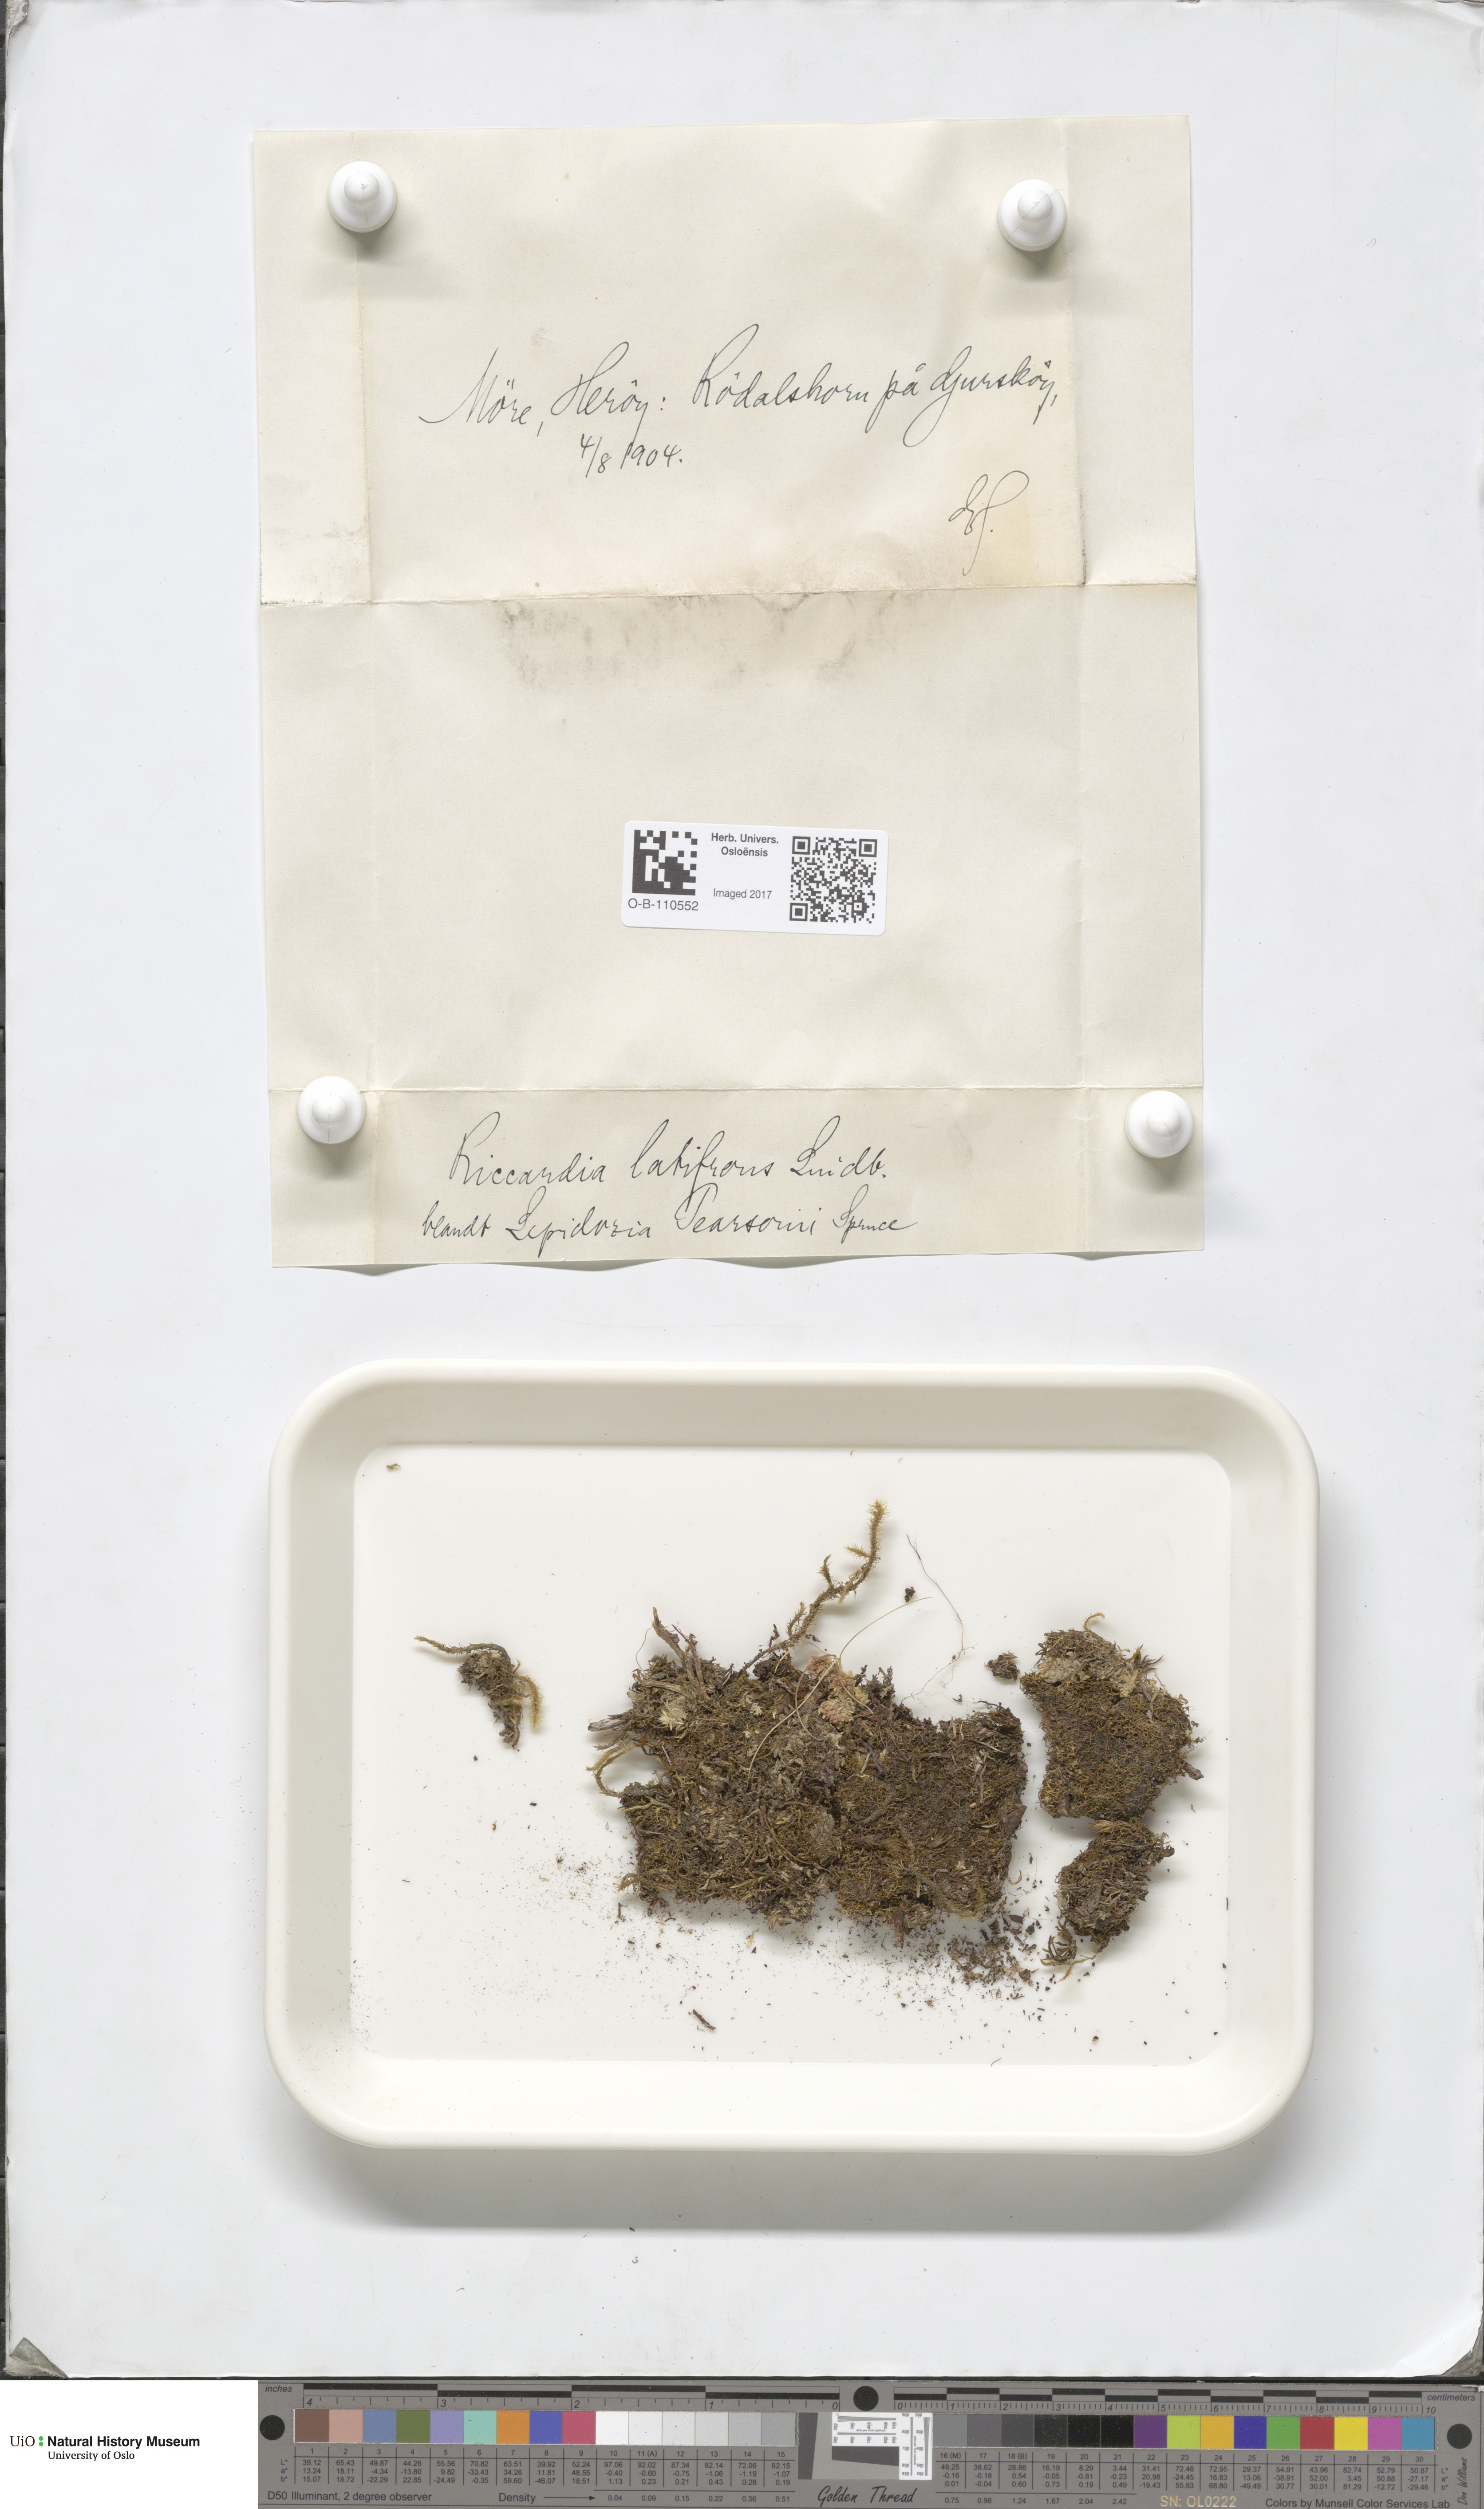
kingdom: Plantae
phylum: Marchantiophyta
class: Jungermanniopsida
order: Metzgeriales
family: Aneuraceae
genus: Riccardia
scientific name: Riccardia latifrons
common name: Bog germanderwort
